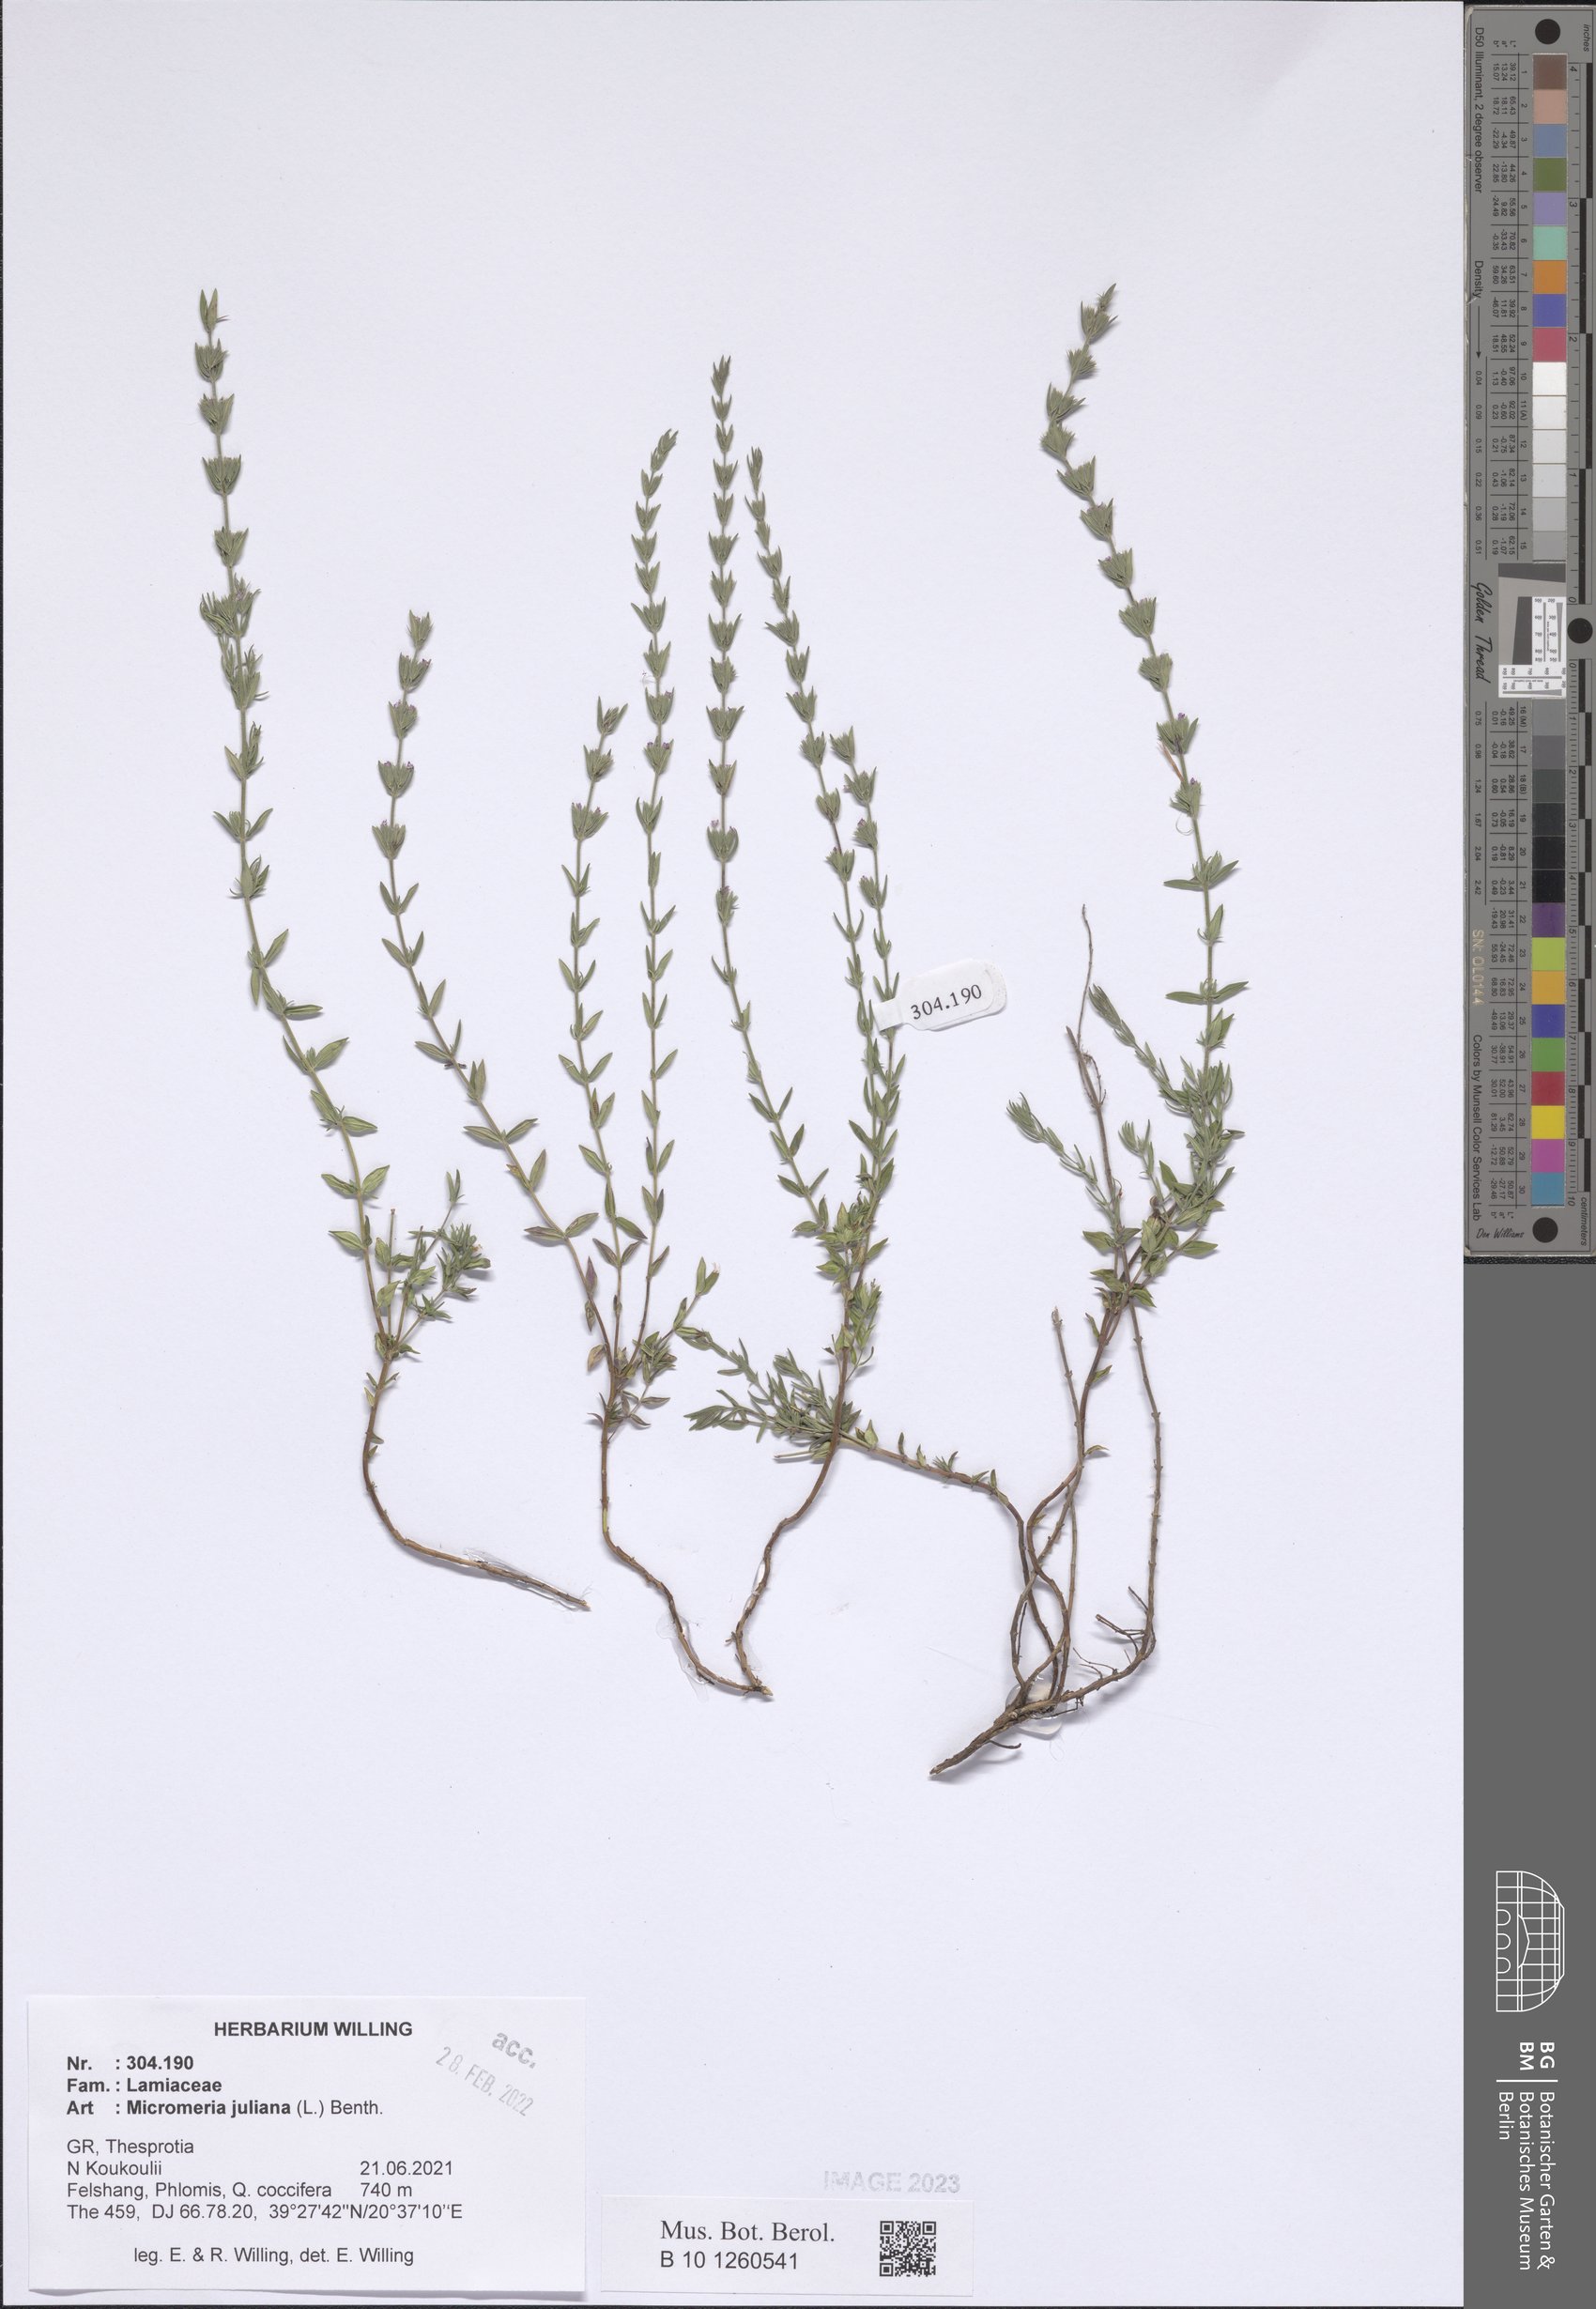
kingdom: Plantae
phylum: Tracheophyta
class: Magnoliopsida
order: Lamiales
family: Lamiaceae
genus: Micromeria
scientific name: Micromeria juliana
